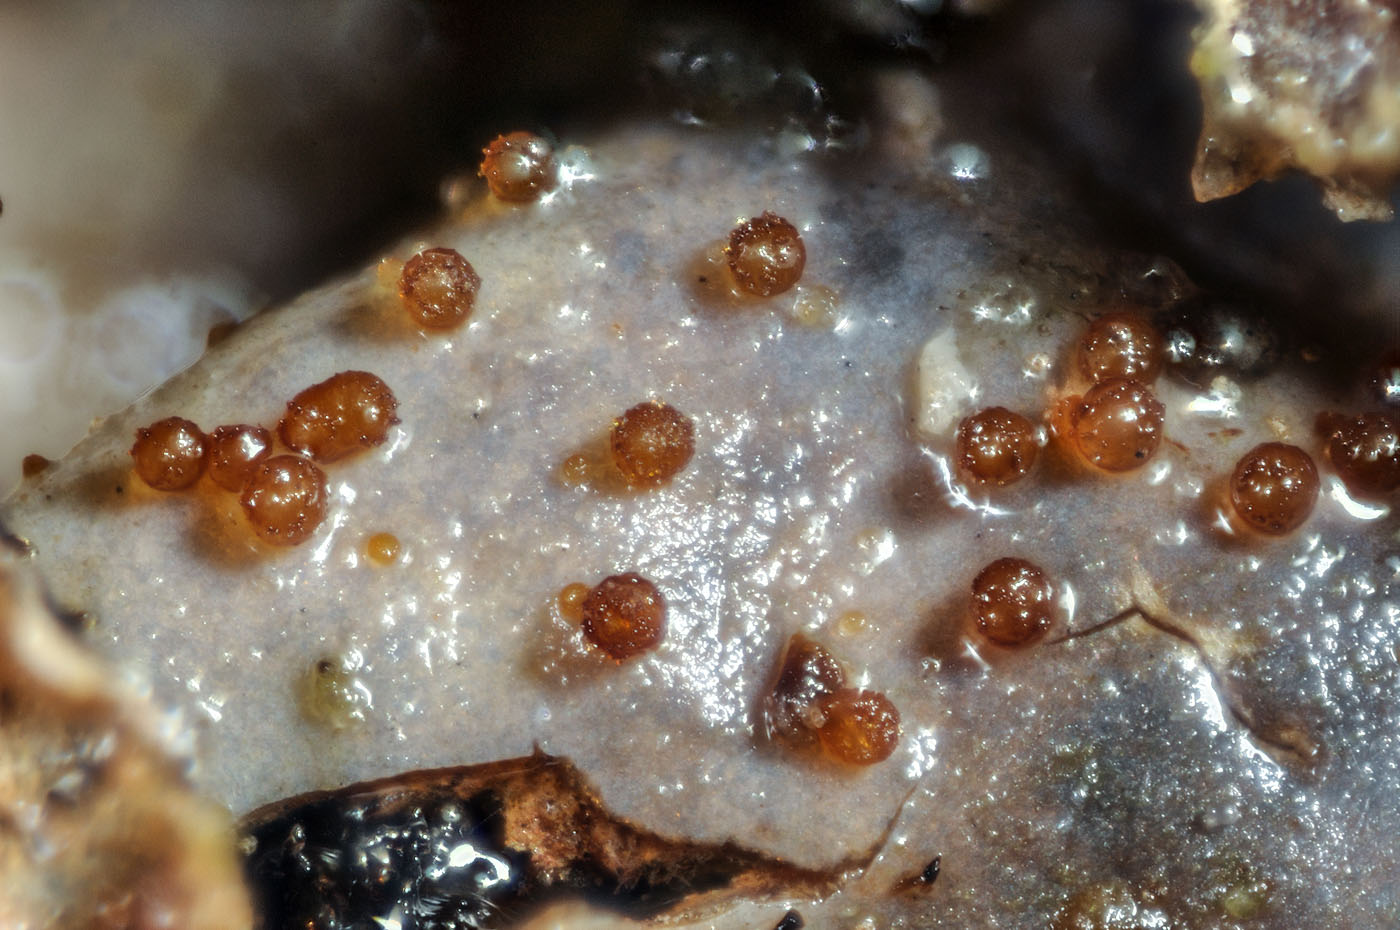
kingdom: Fungi
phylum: Ascomycota
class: Sordariomycetes
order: Hypocreales
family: Bionectriaceae
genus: Nectriopsis
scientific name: Nectriopsis rubefaciens
